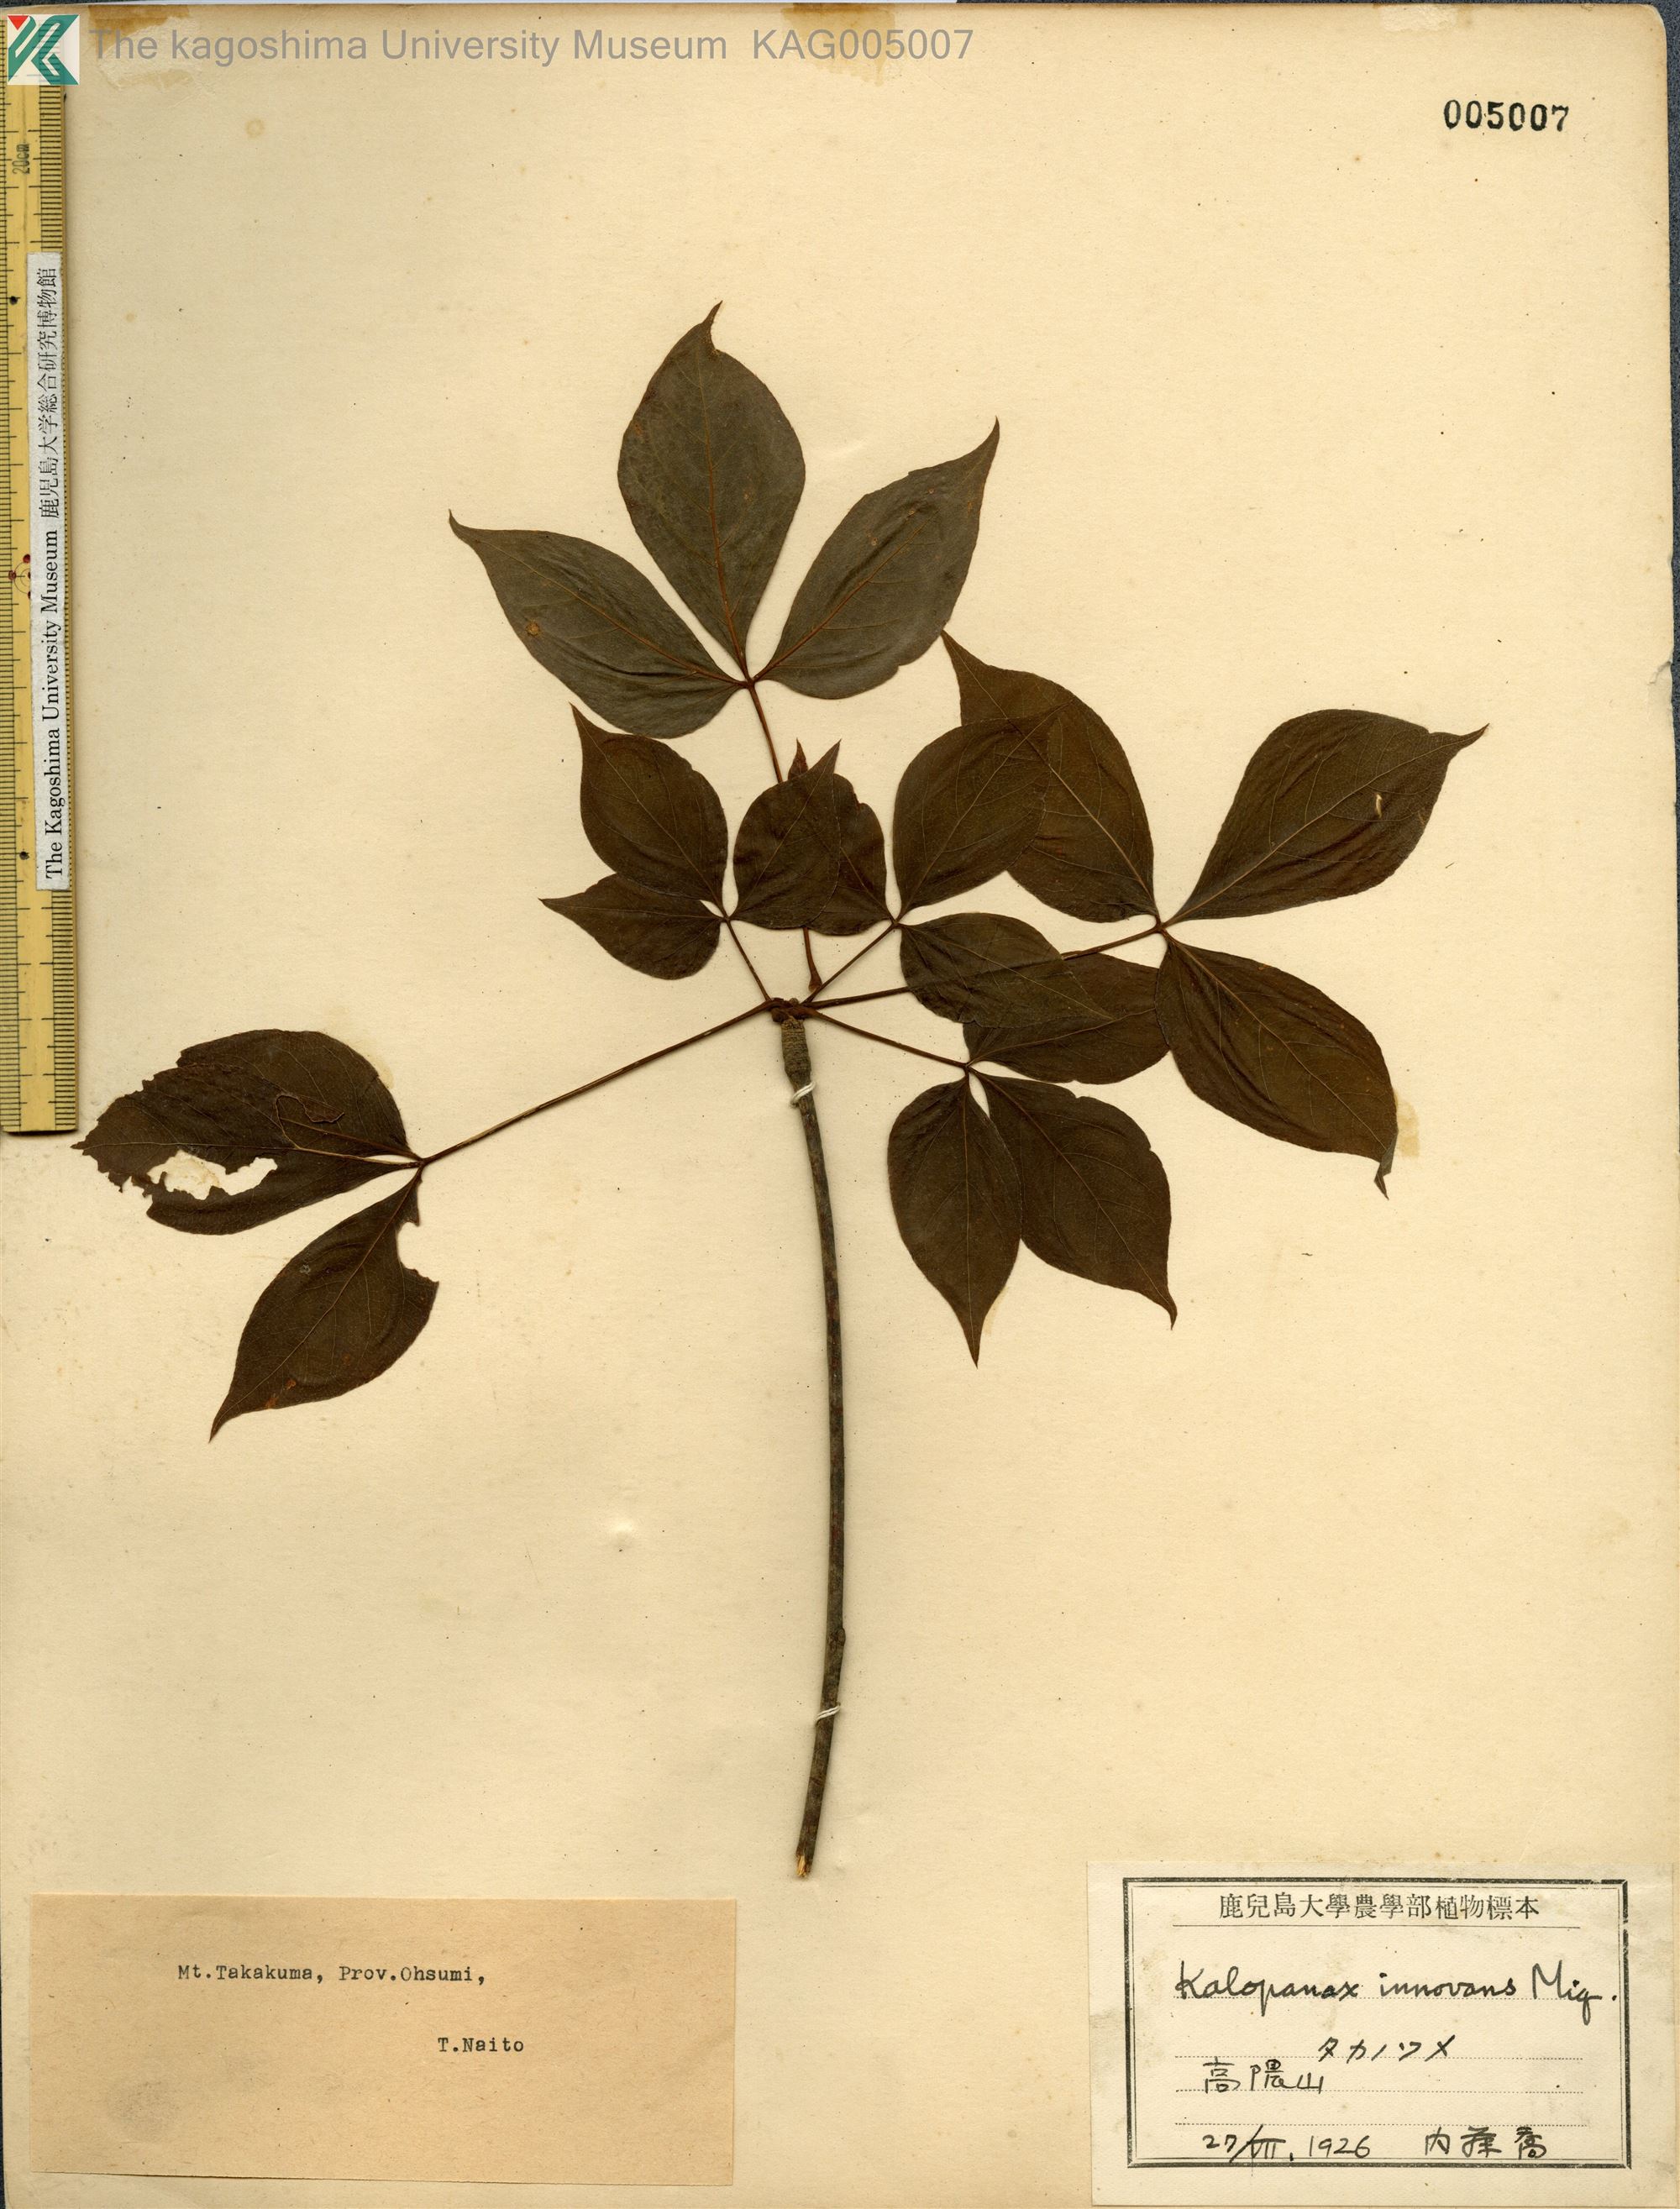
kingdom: Plantae
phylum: Tracheophyta
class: Magnoliopsida
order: Apiales
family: Araliaceae
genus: Gamblea
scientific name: Gamblea innovans
